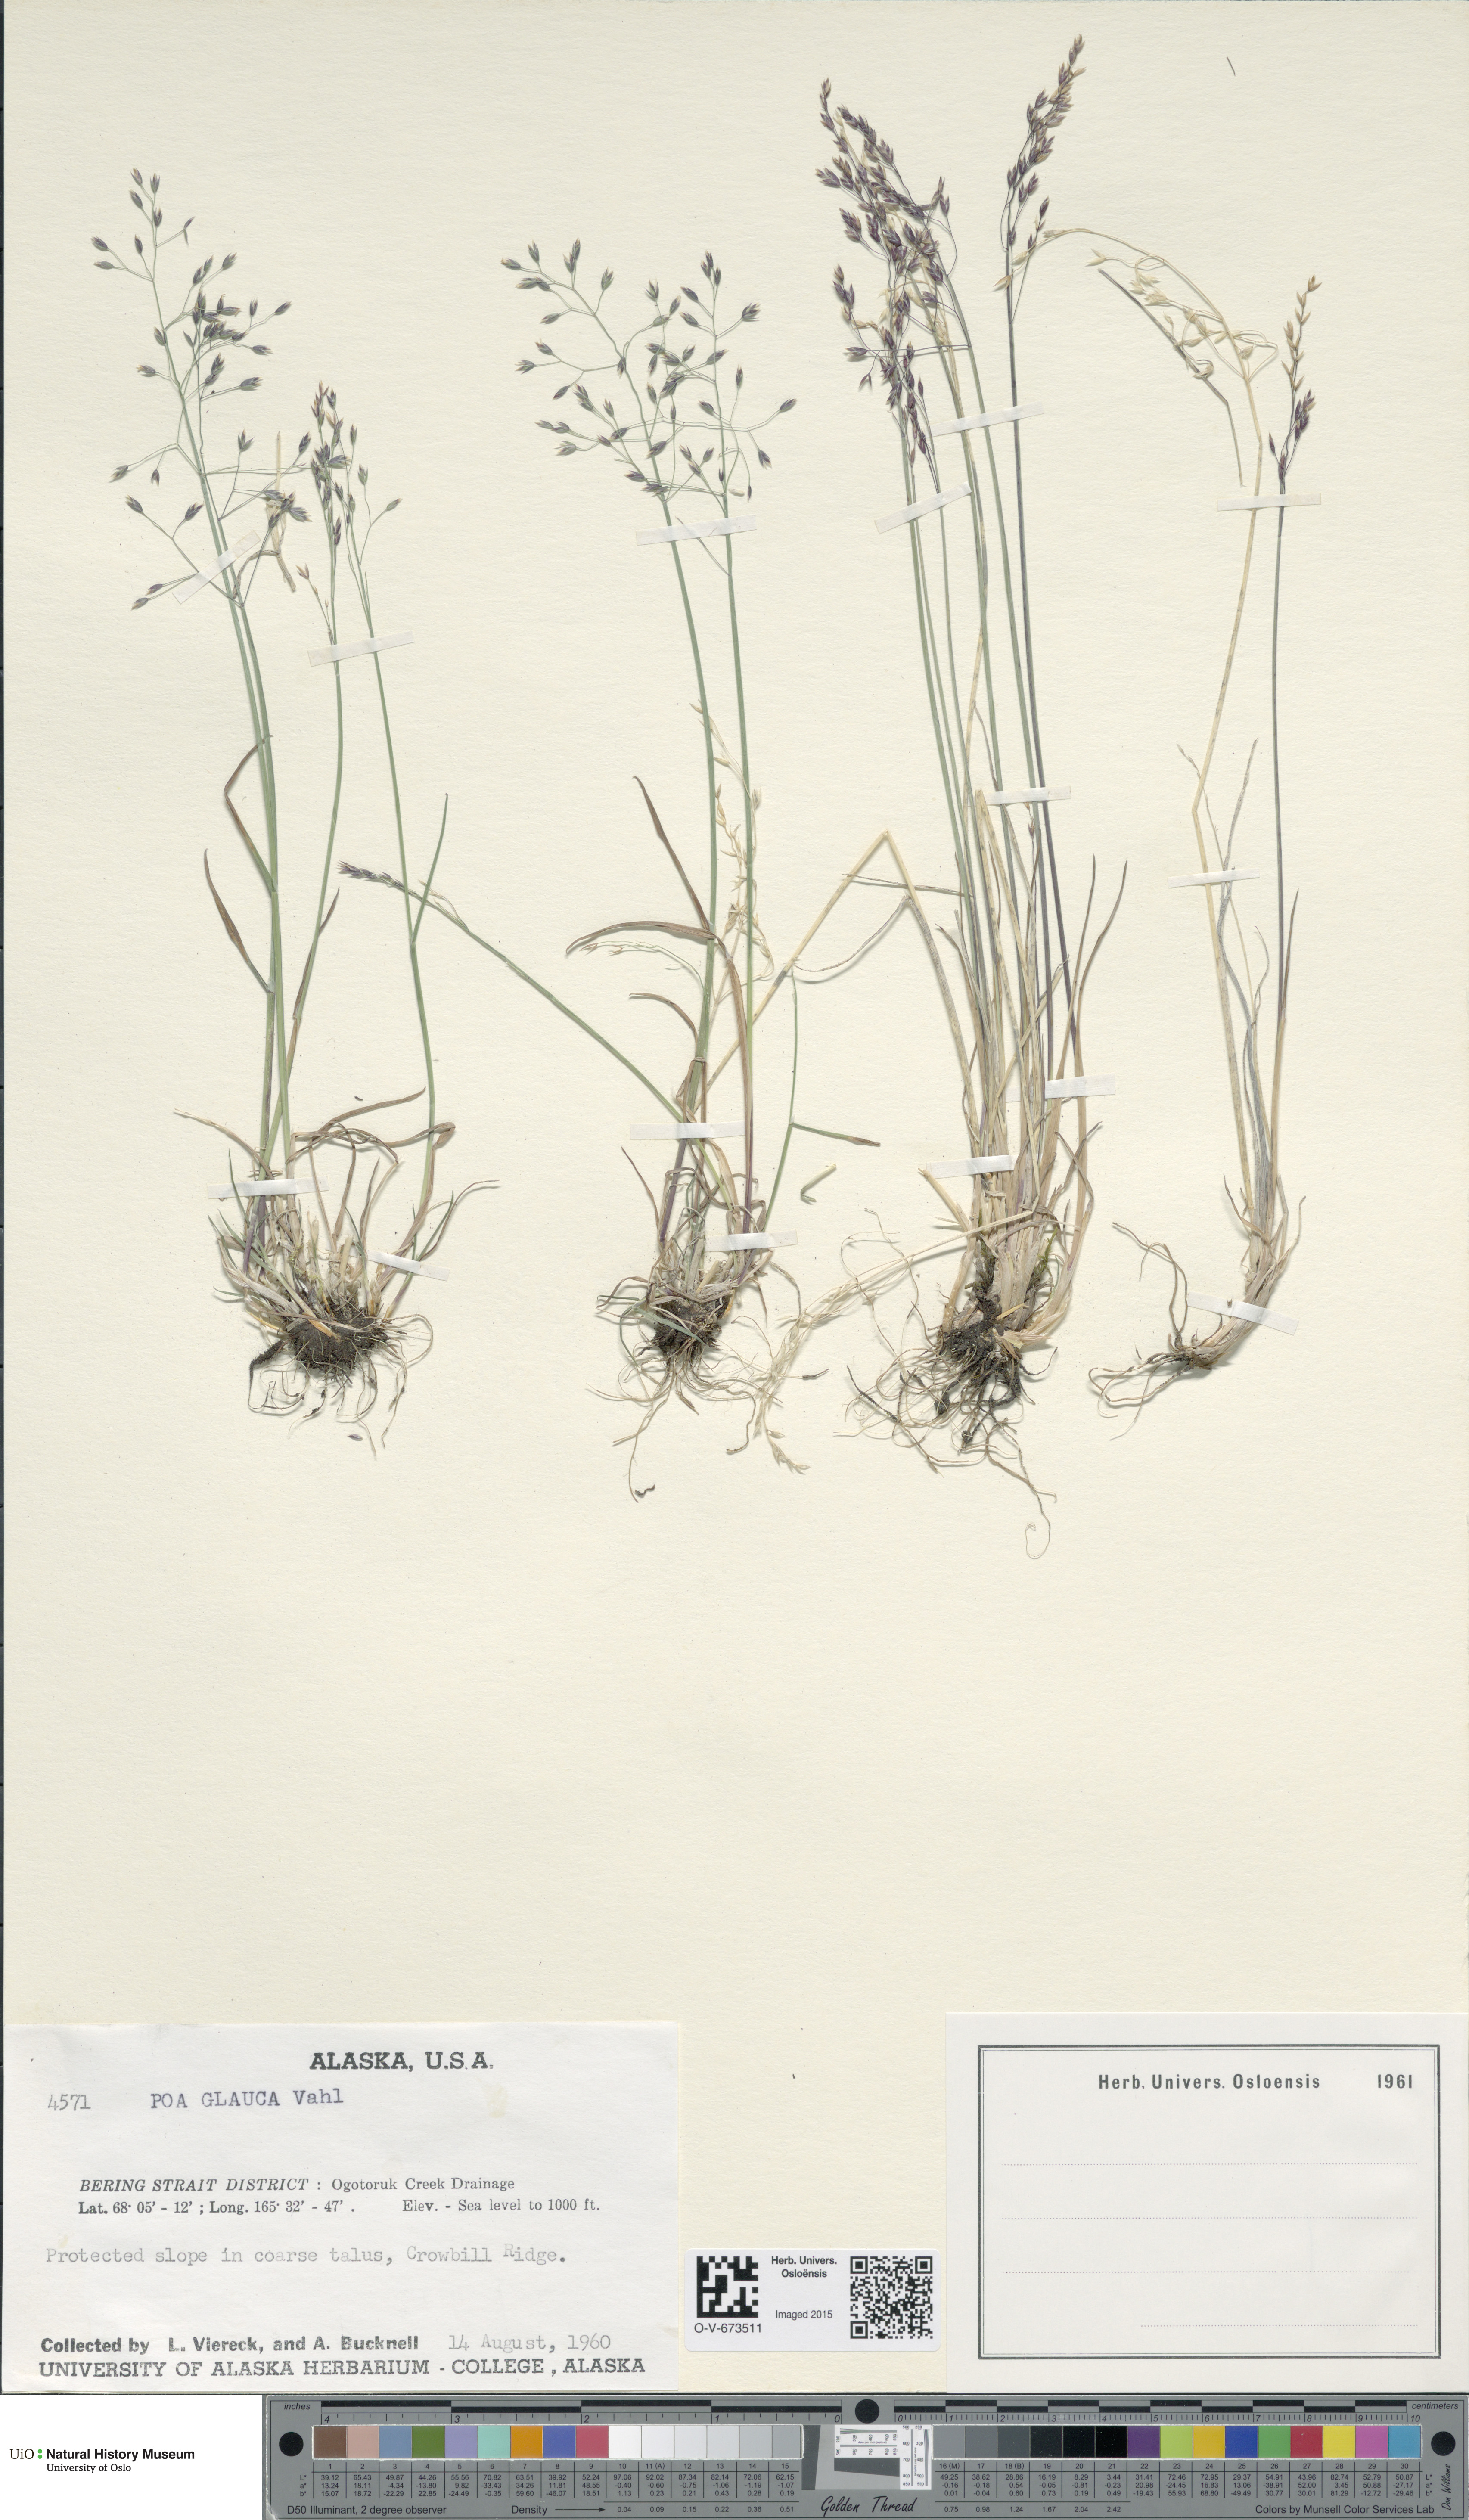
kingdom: Plantae
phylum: Tracheophyta
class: Liliopsida
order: Poales
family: Poaceae
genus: Poa
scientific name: Poa glauca
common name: Glaucous bluegrass
